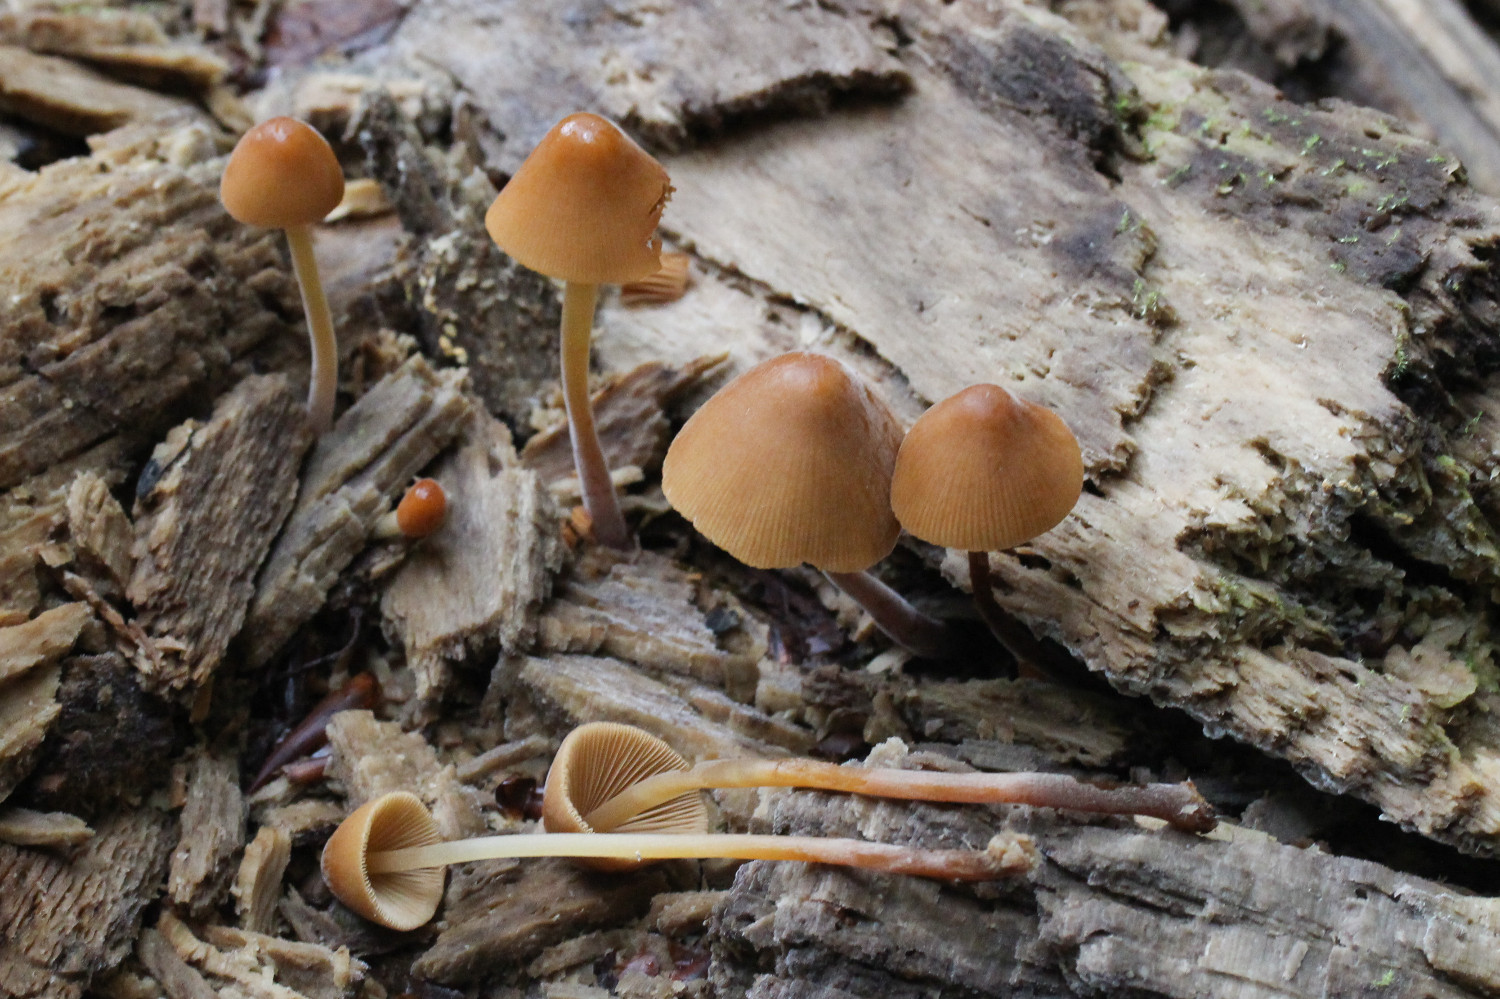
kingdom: Fungi
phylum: Basidiomycota
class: Agaricomycetes
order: Agaricales
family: Bolbitiaceae
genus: Conocybe
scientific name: Conocybe subpubescens
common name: krat-keglehat
